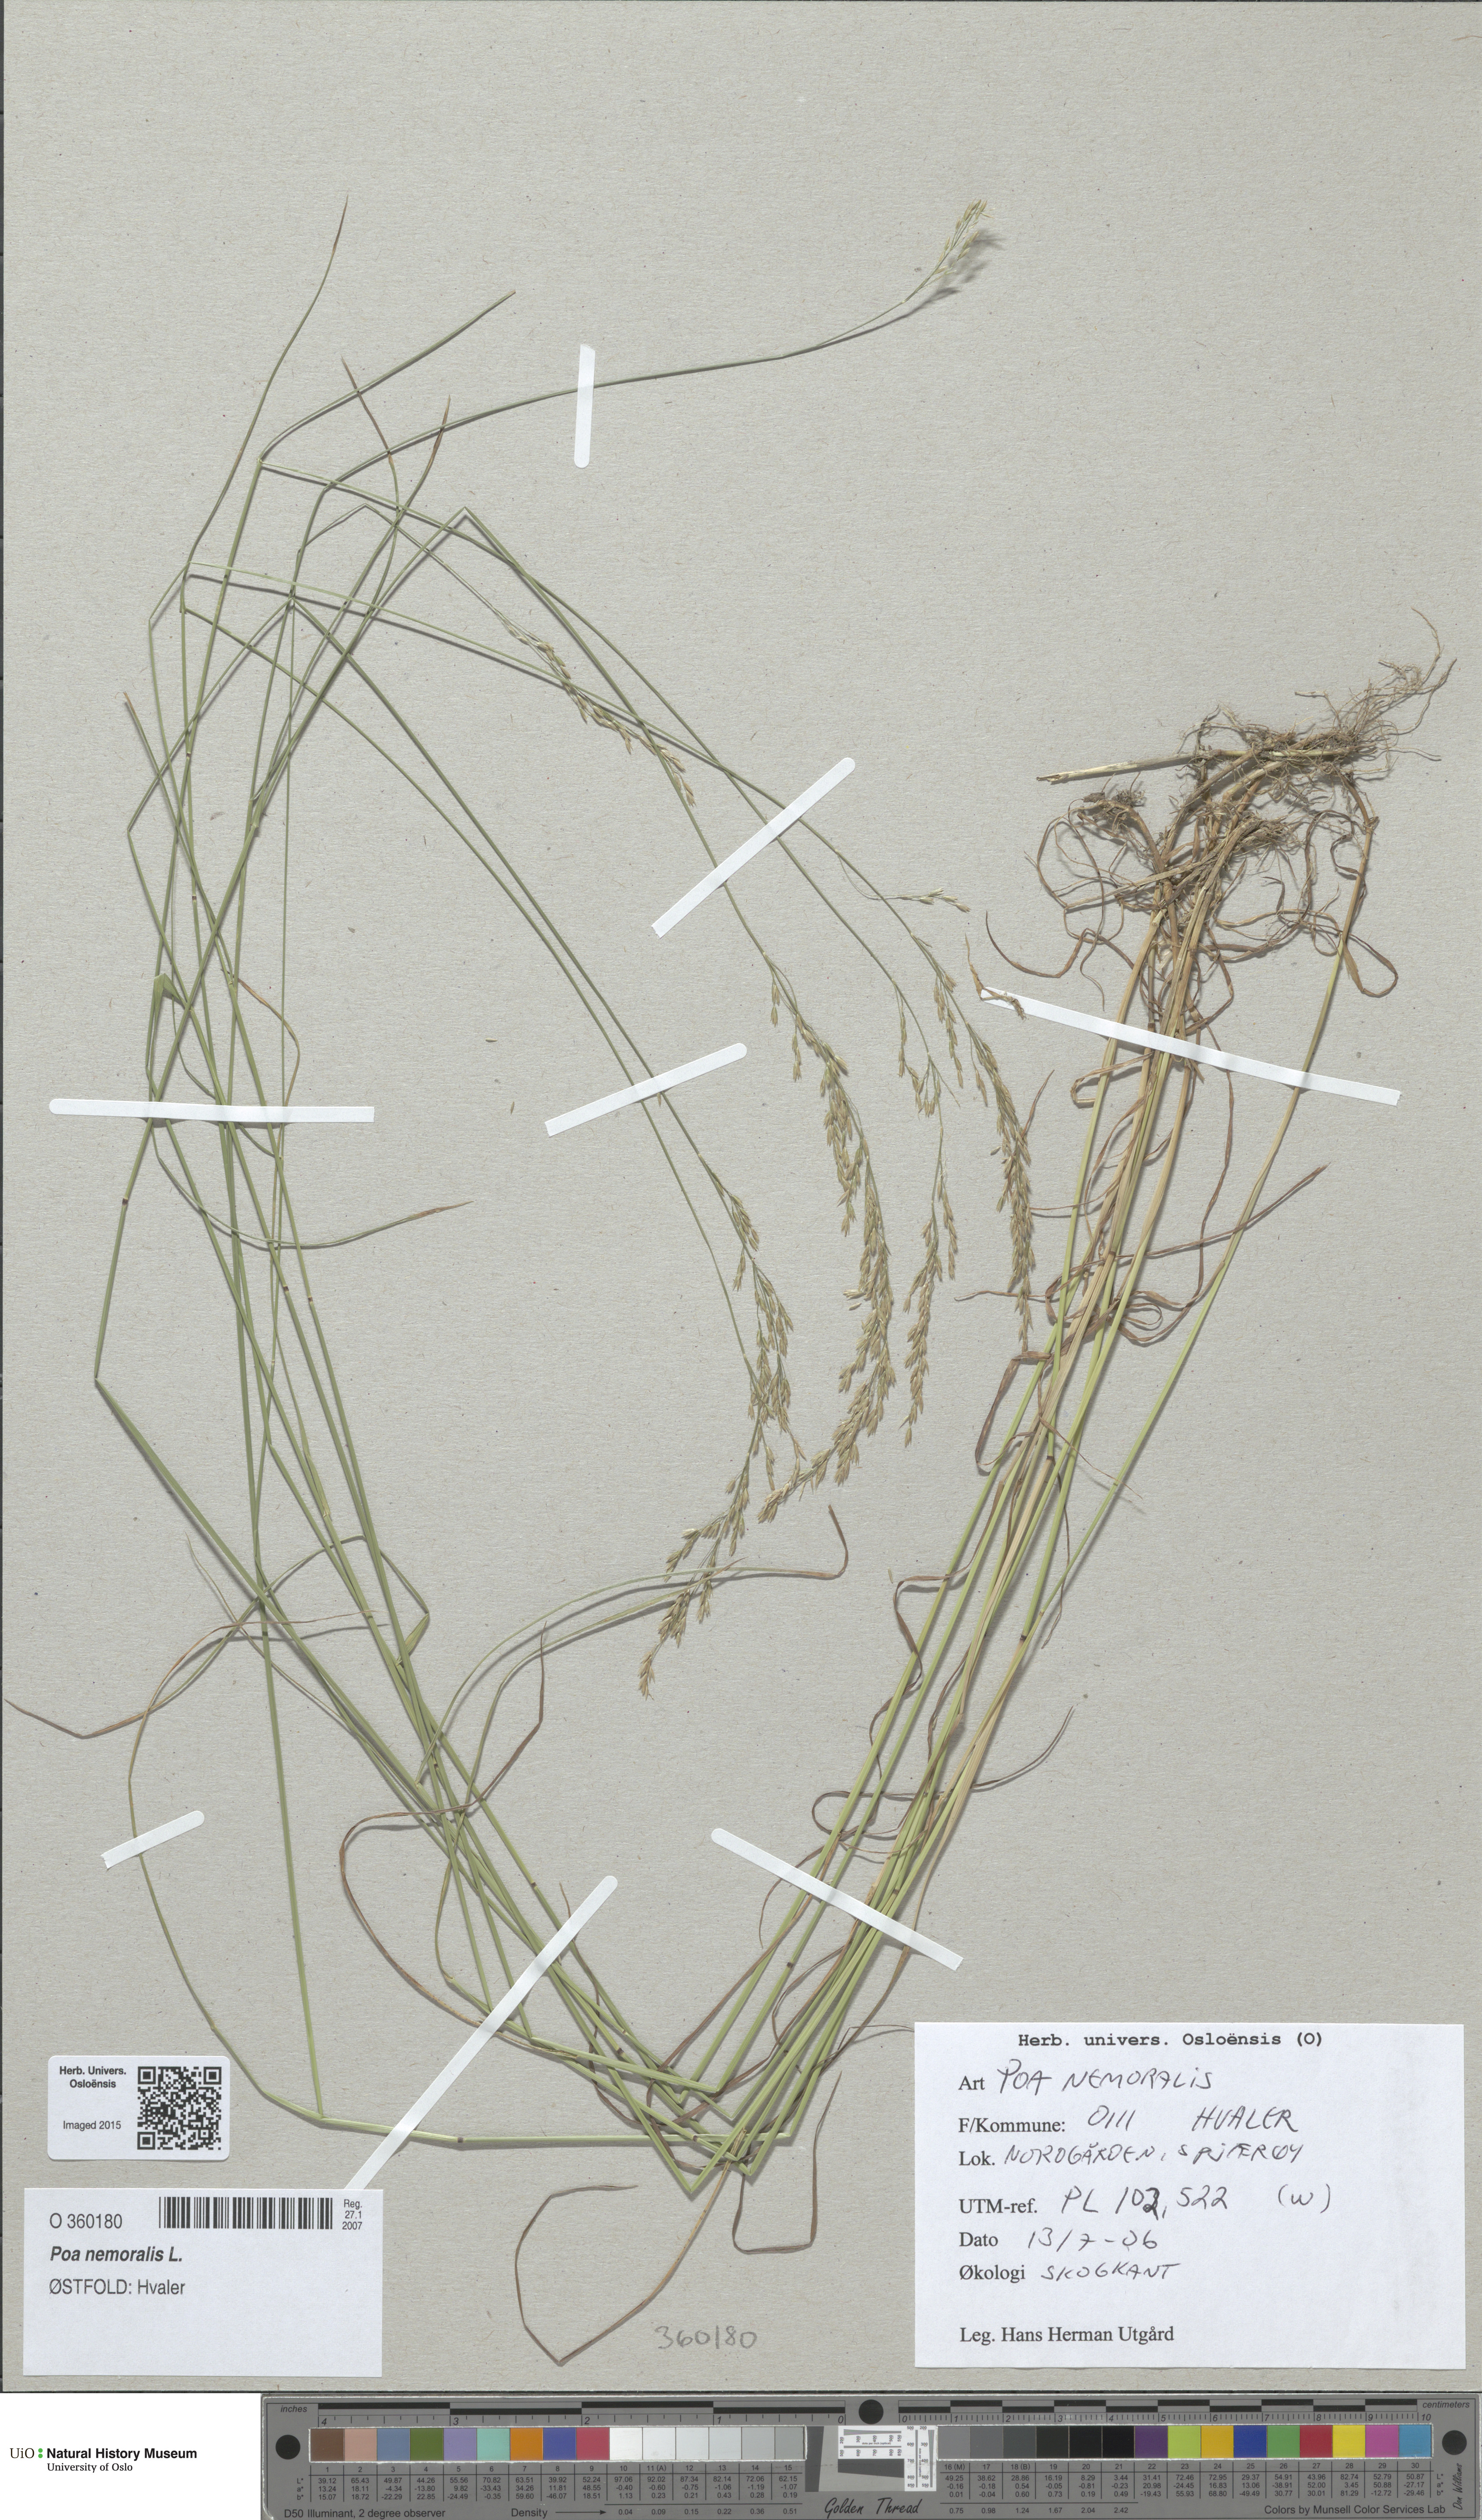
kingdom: Plantae
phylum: Tracheophyta
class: Liliopsida
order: Poales
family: Poaceae
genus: Poa
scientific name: Poa nemoralis
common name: Wood bluegrass
